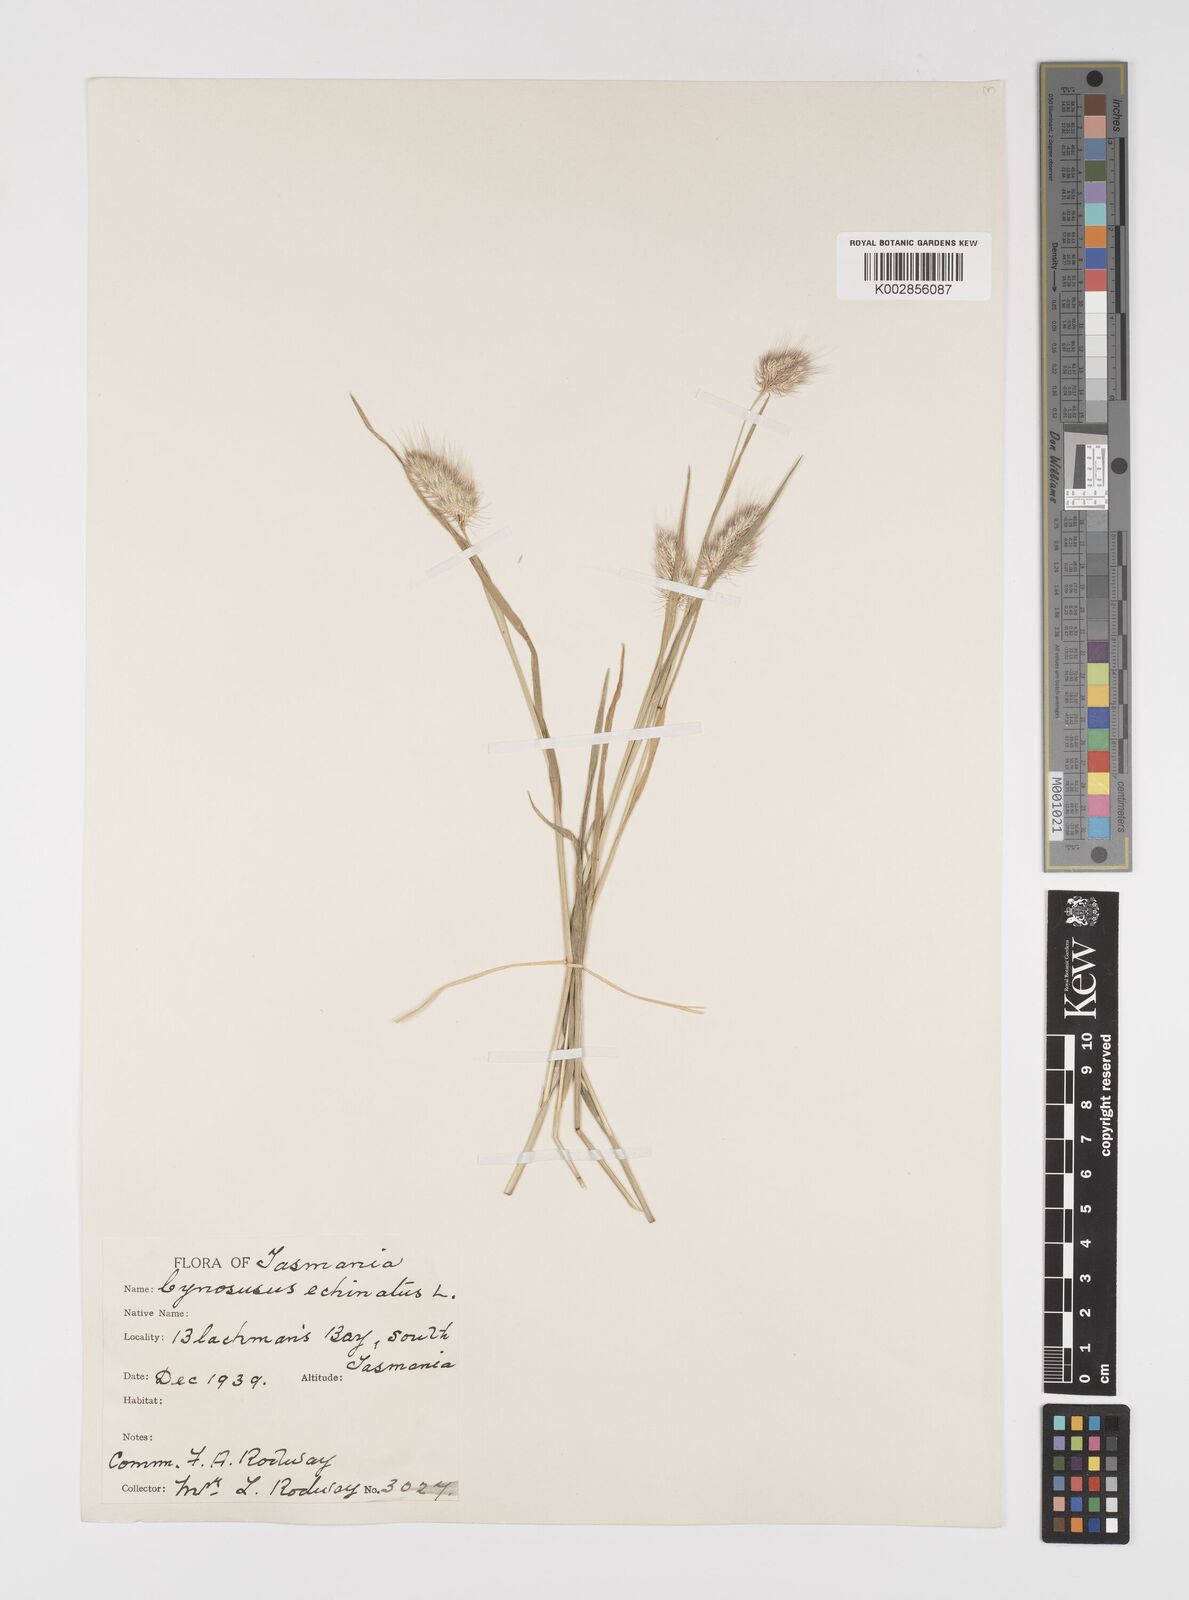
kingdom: Plantae
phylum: Tracheophyta
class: Liliopsida
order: Poales
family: Poaceae
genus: Cynosurus
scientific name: Cynosurus echinatus
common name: Rough dog's-tail
